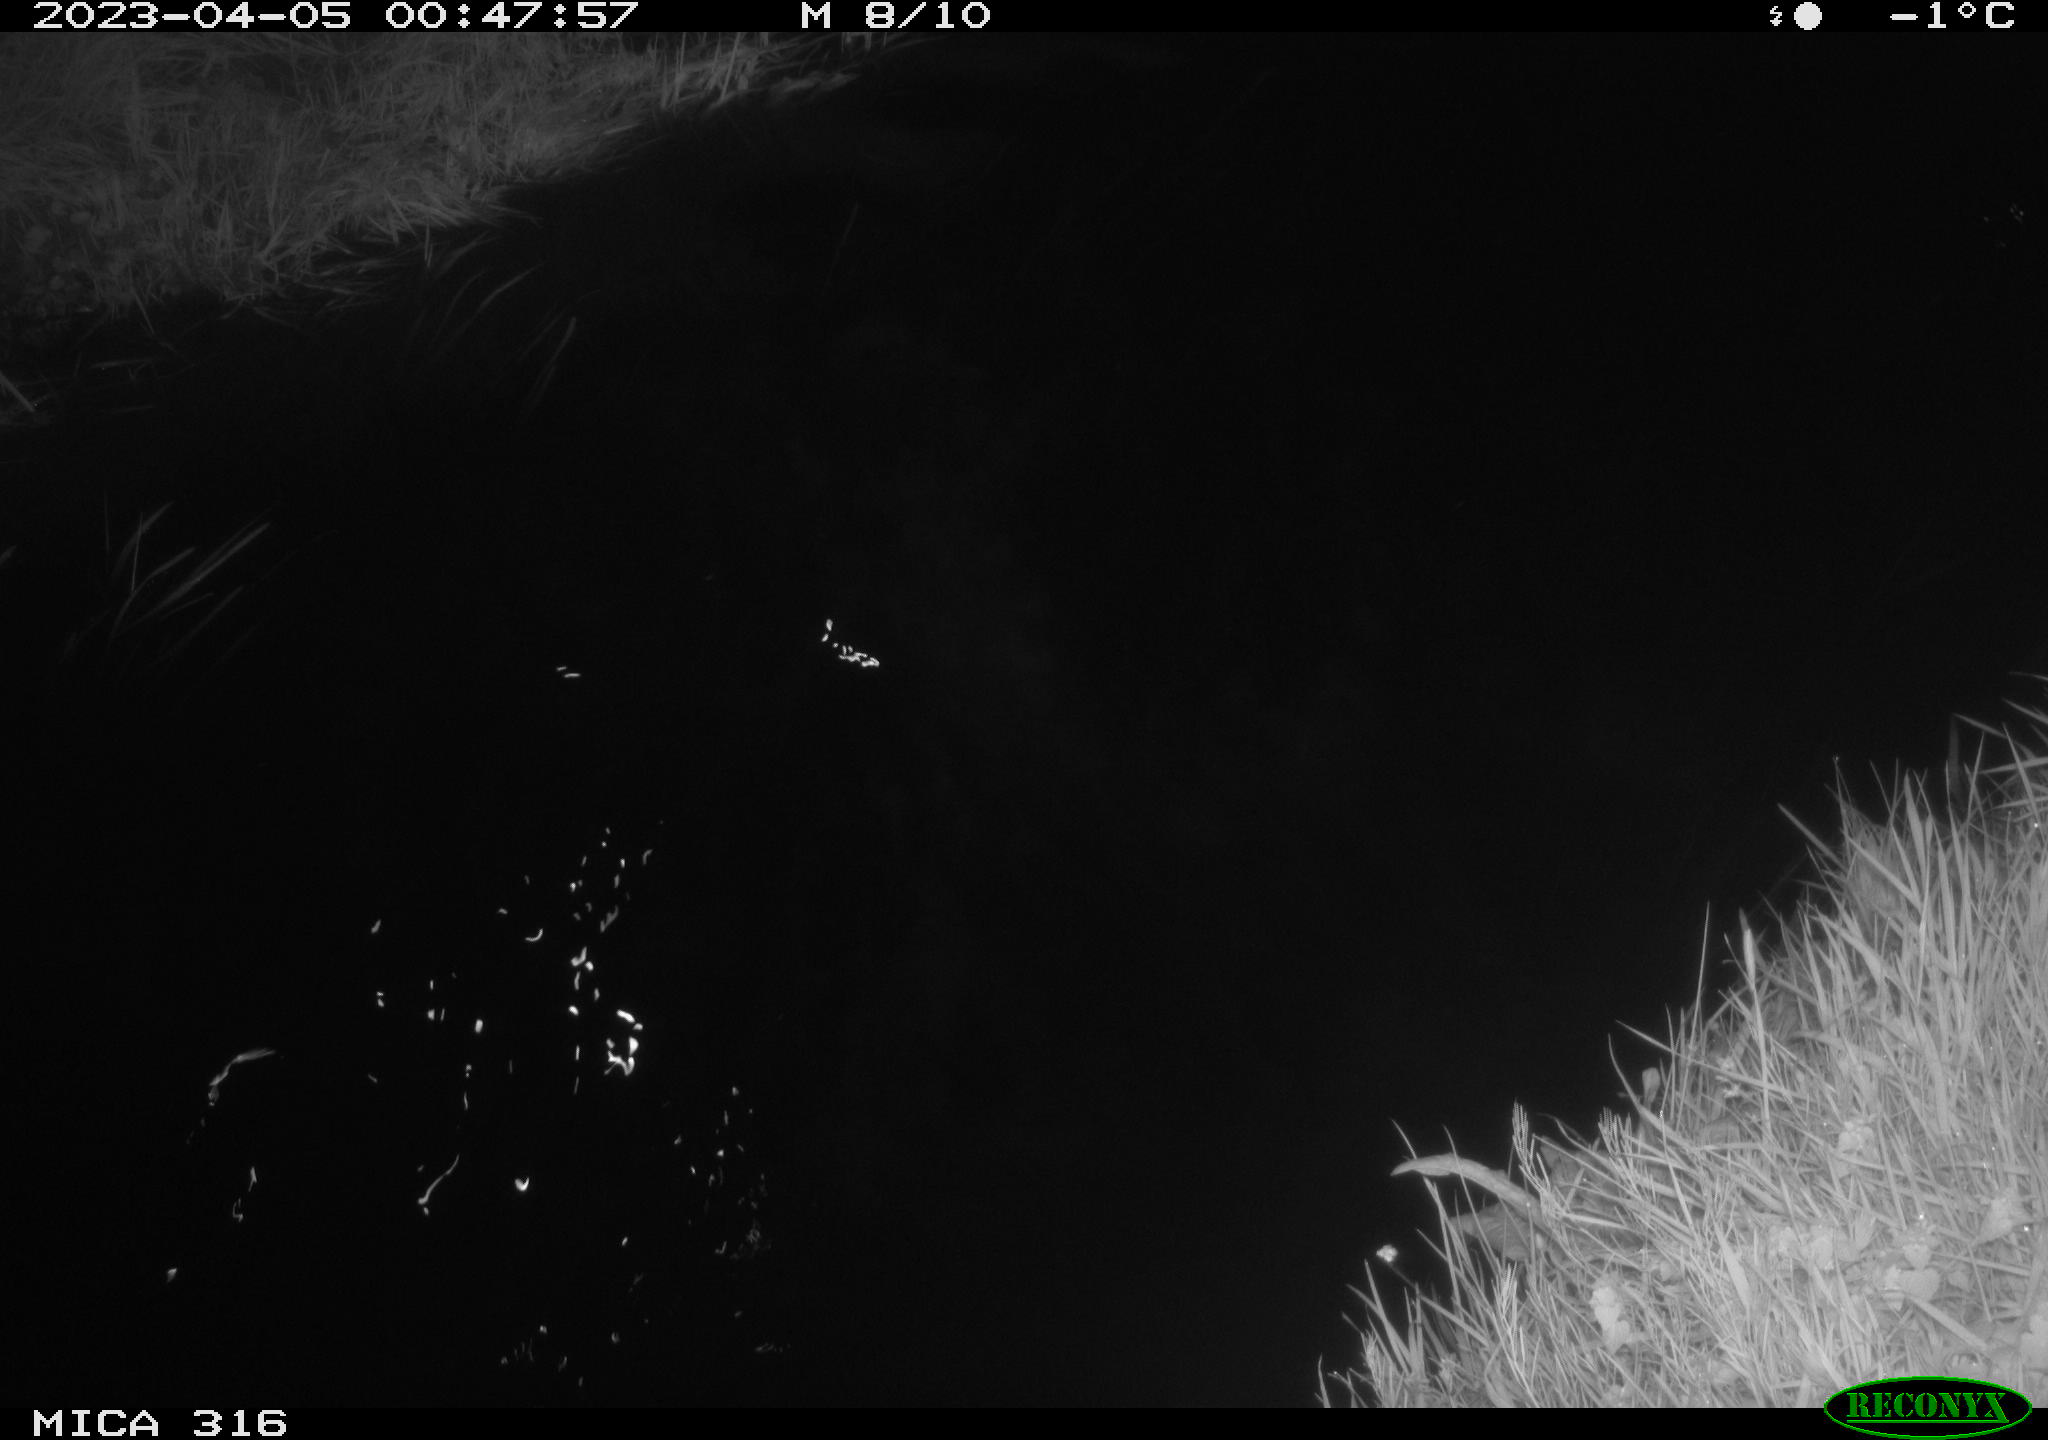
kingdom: Animalia
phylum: Chordata
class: Aves
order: Anseriformes
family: Anatidae
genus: Anas
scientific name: Anas
